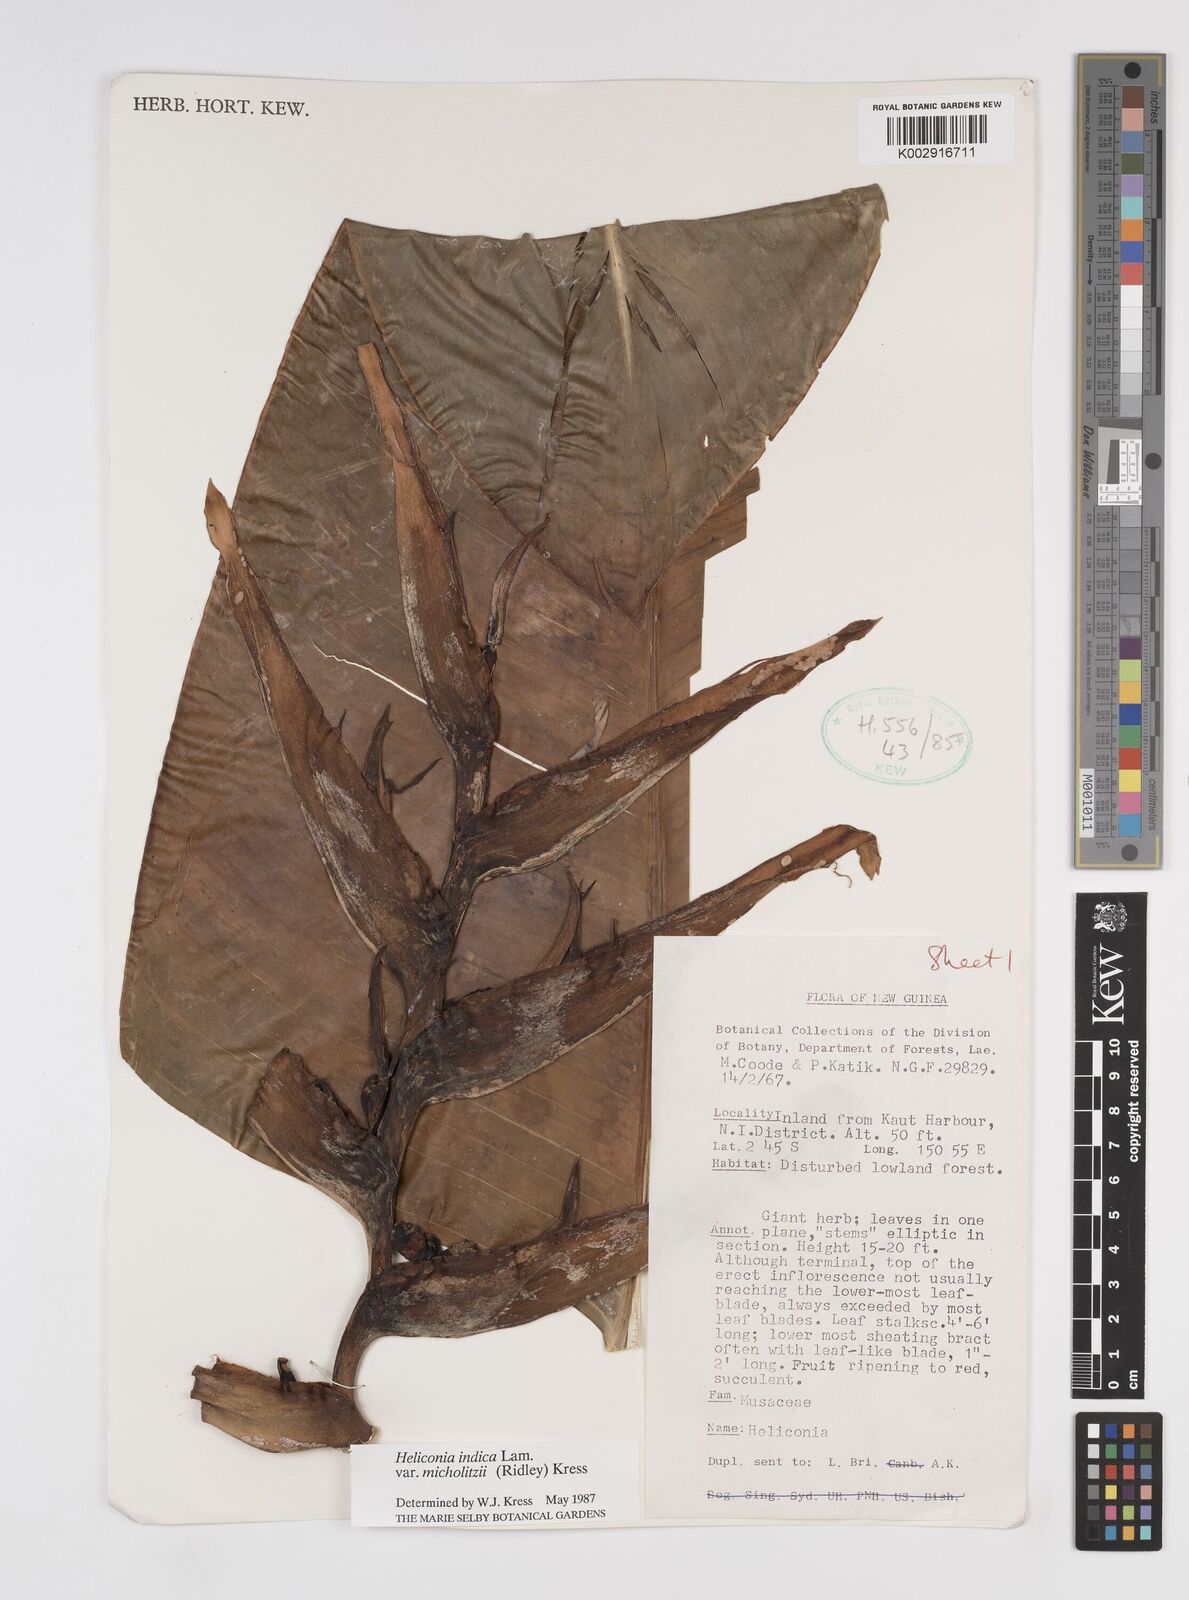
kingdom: Plantae
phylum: Tracheophyta
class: Liliopsida
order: Zingiberales
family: Heliconiaceae
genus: Heliconia
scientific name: Heliconia indica
